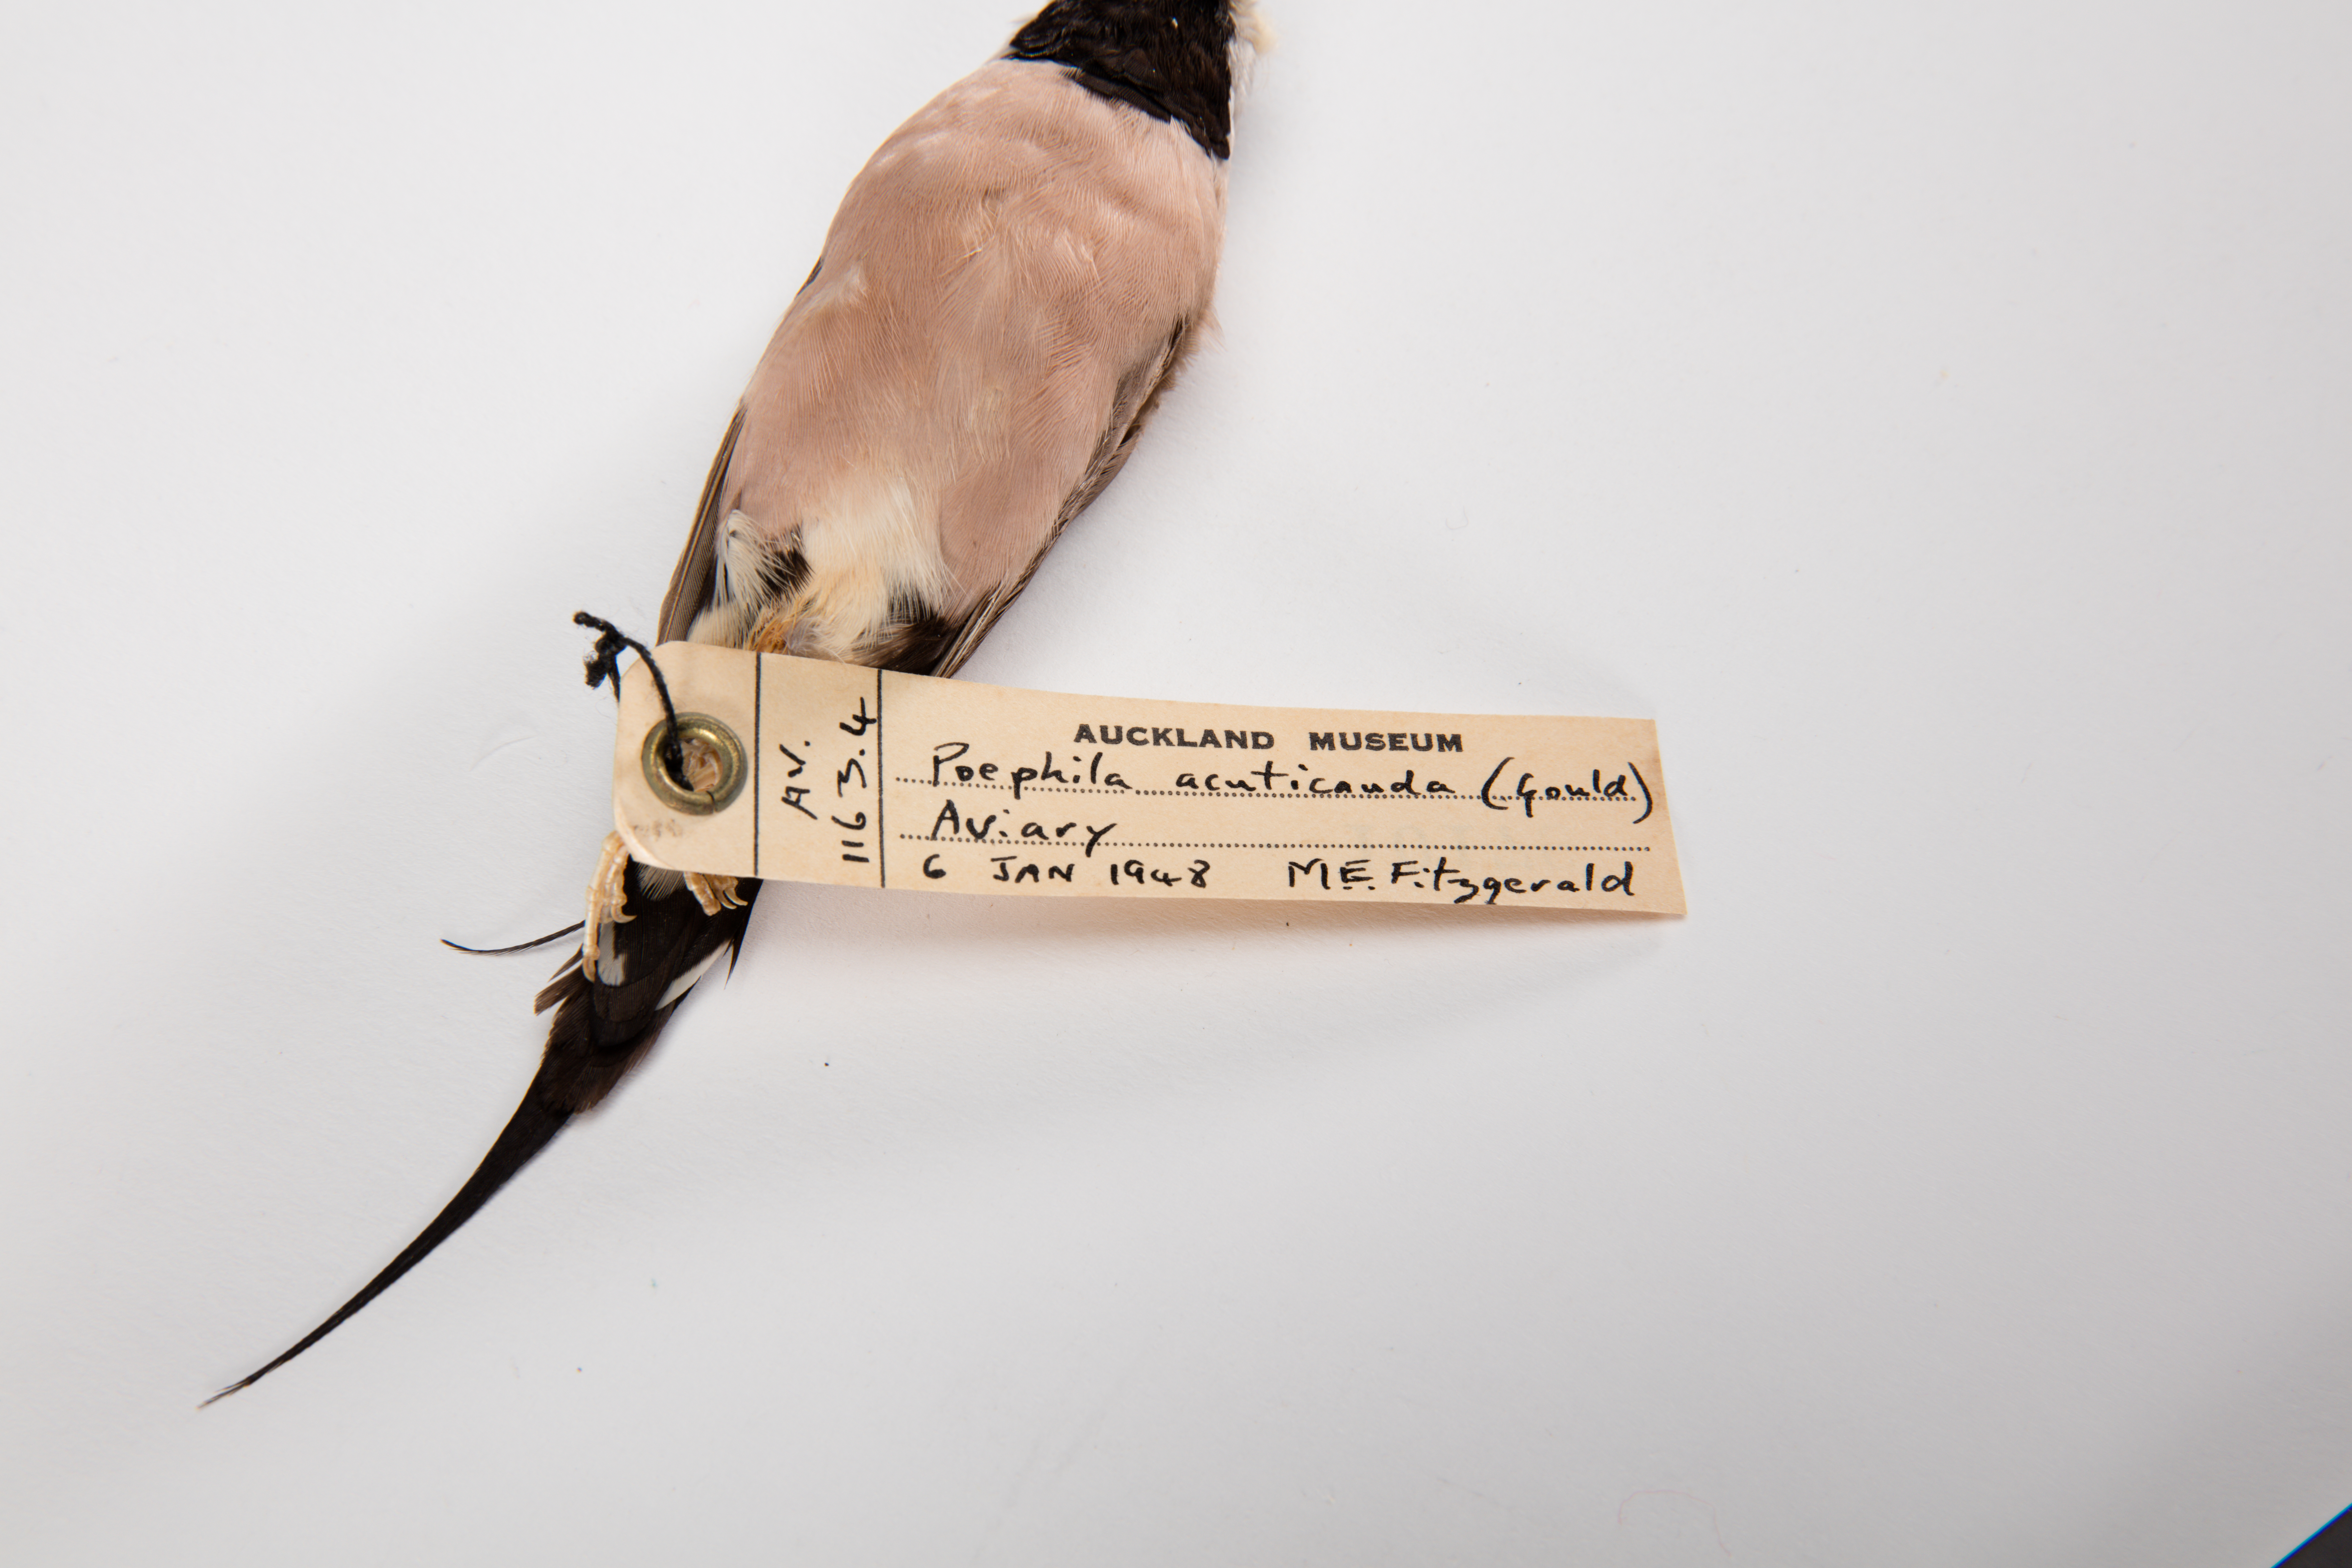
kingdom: Animalia
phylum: Chordata
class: Aves
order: Passeriformes
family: Estrildidae
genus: Poephila
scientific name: Poephila acuticauda
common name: Long-tailed finch
